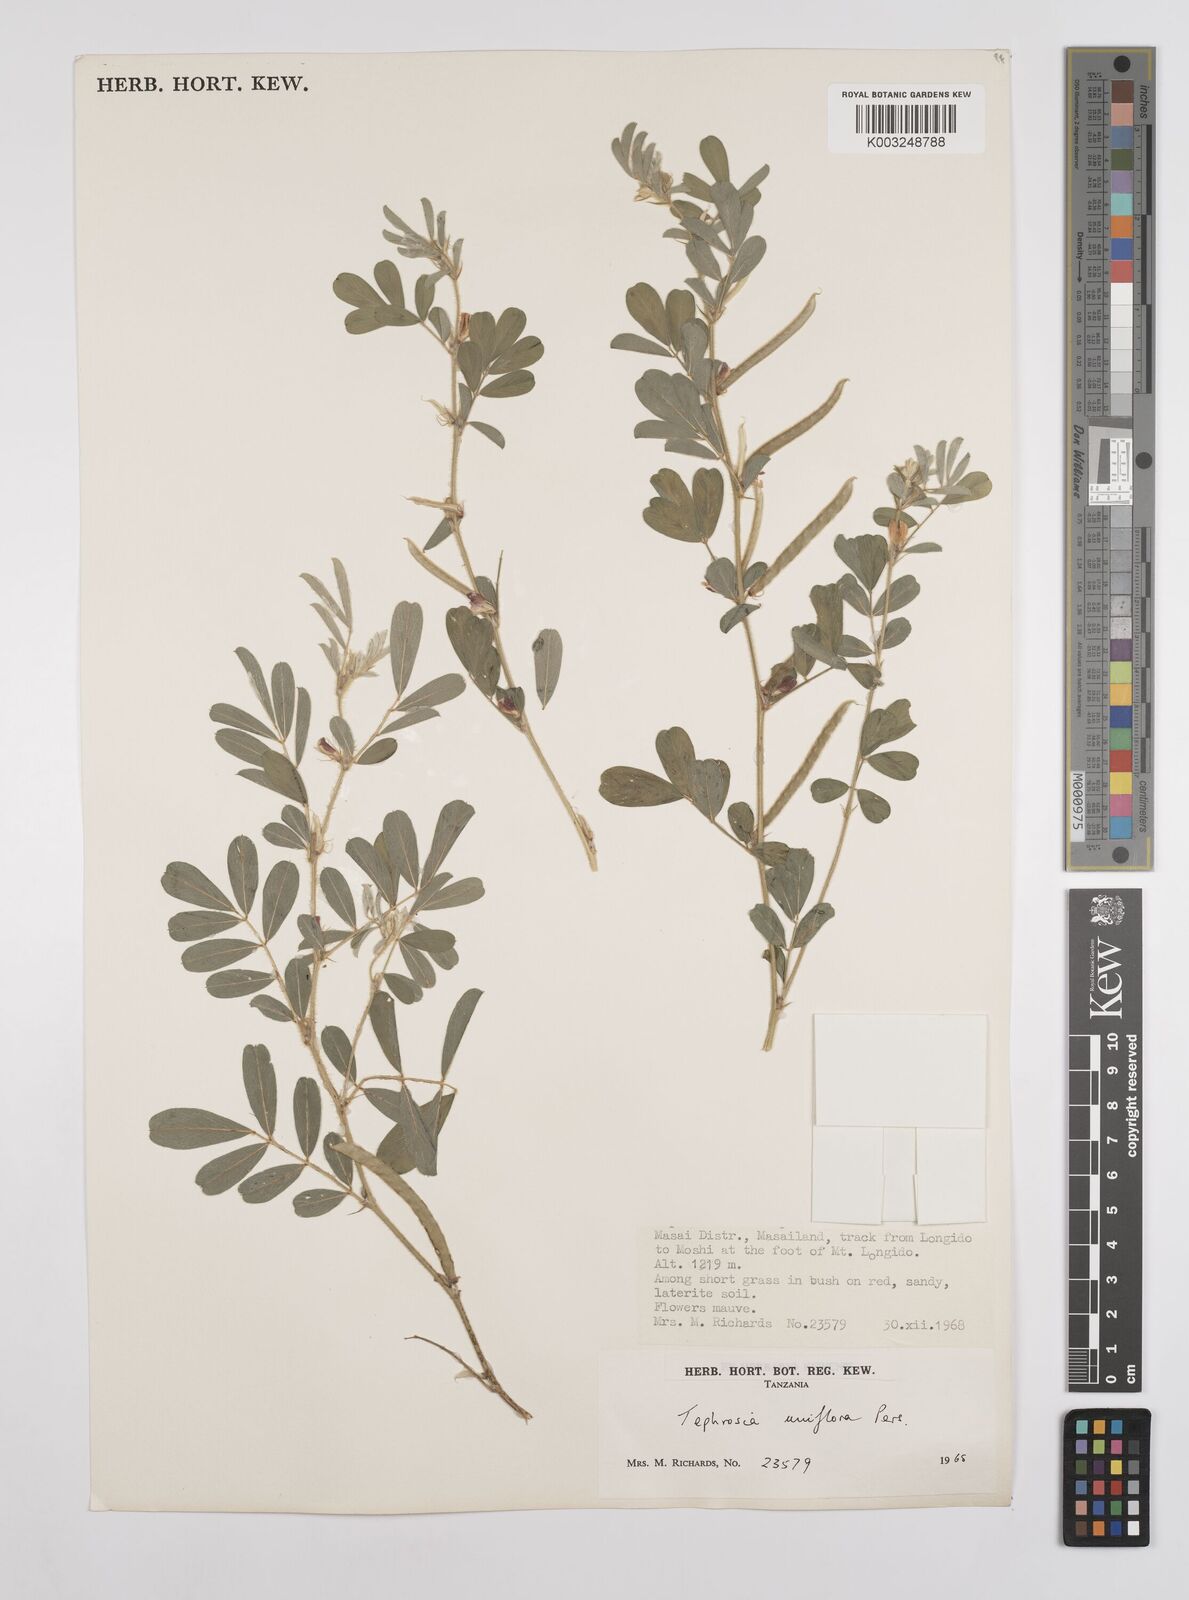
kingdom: Plantae
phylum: Tracheophyta
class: Magnoliopsida
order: Fabales
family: Fabaceae
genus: Tephrosia
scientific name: Tephrosia uniflora
